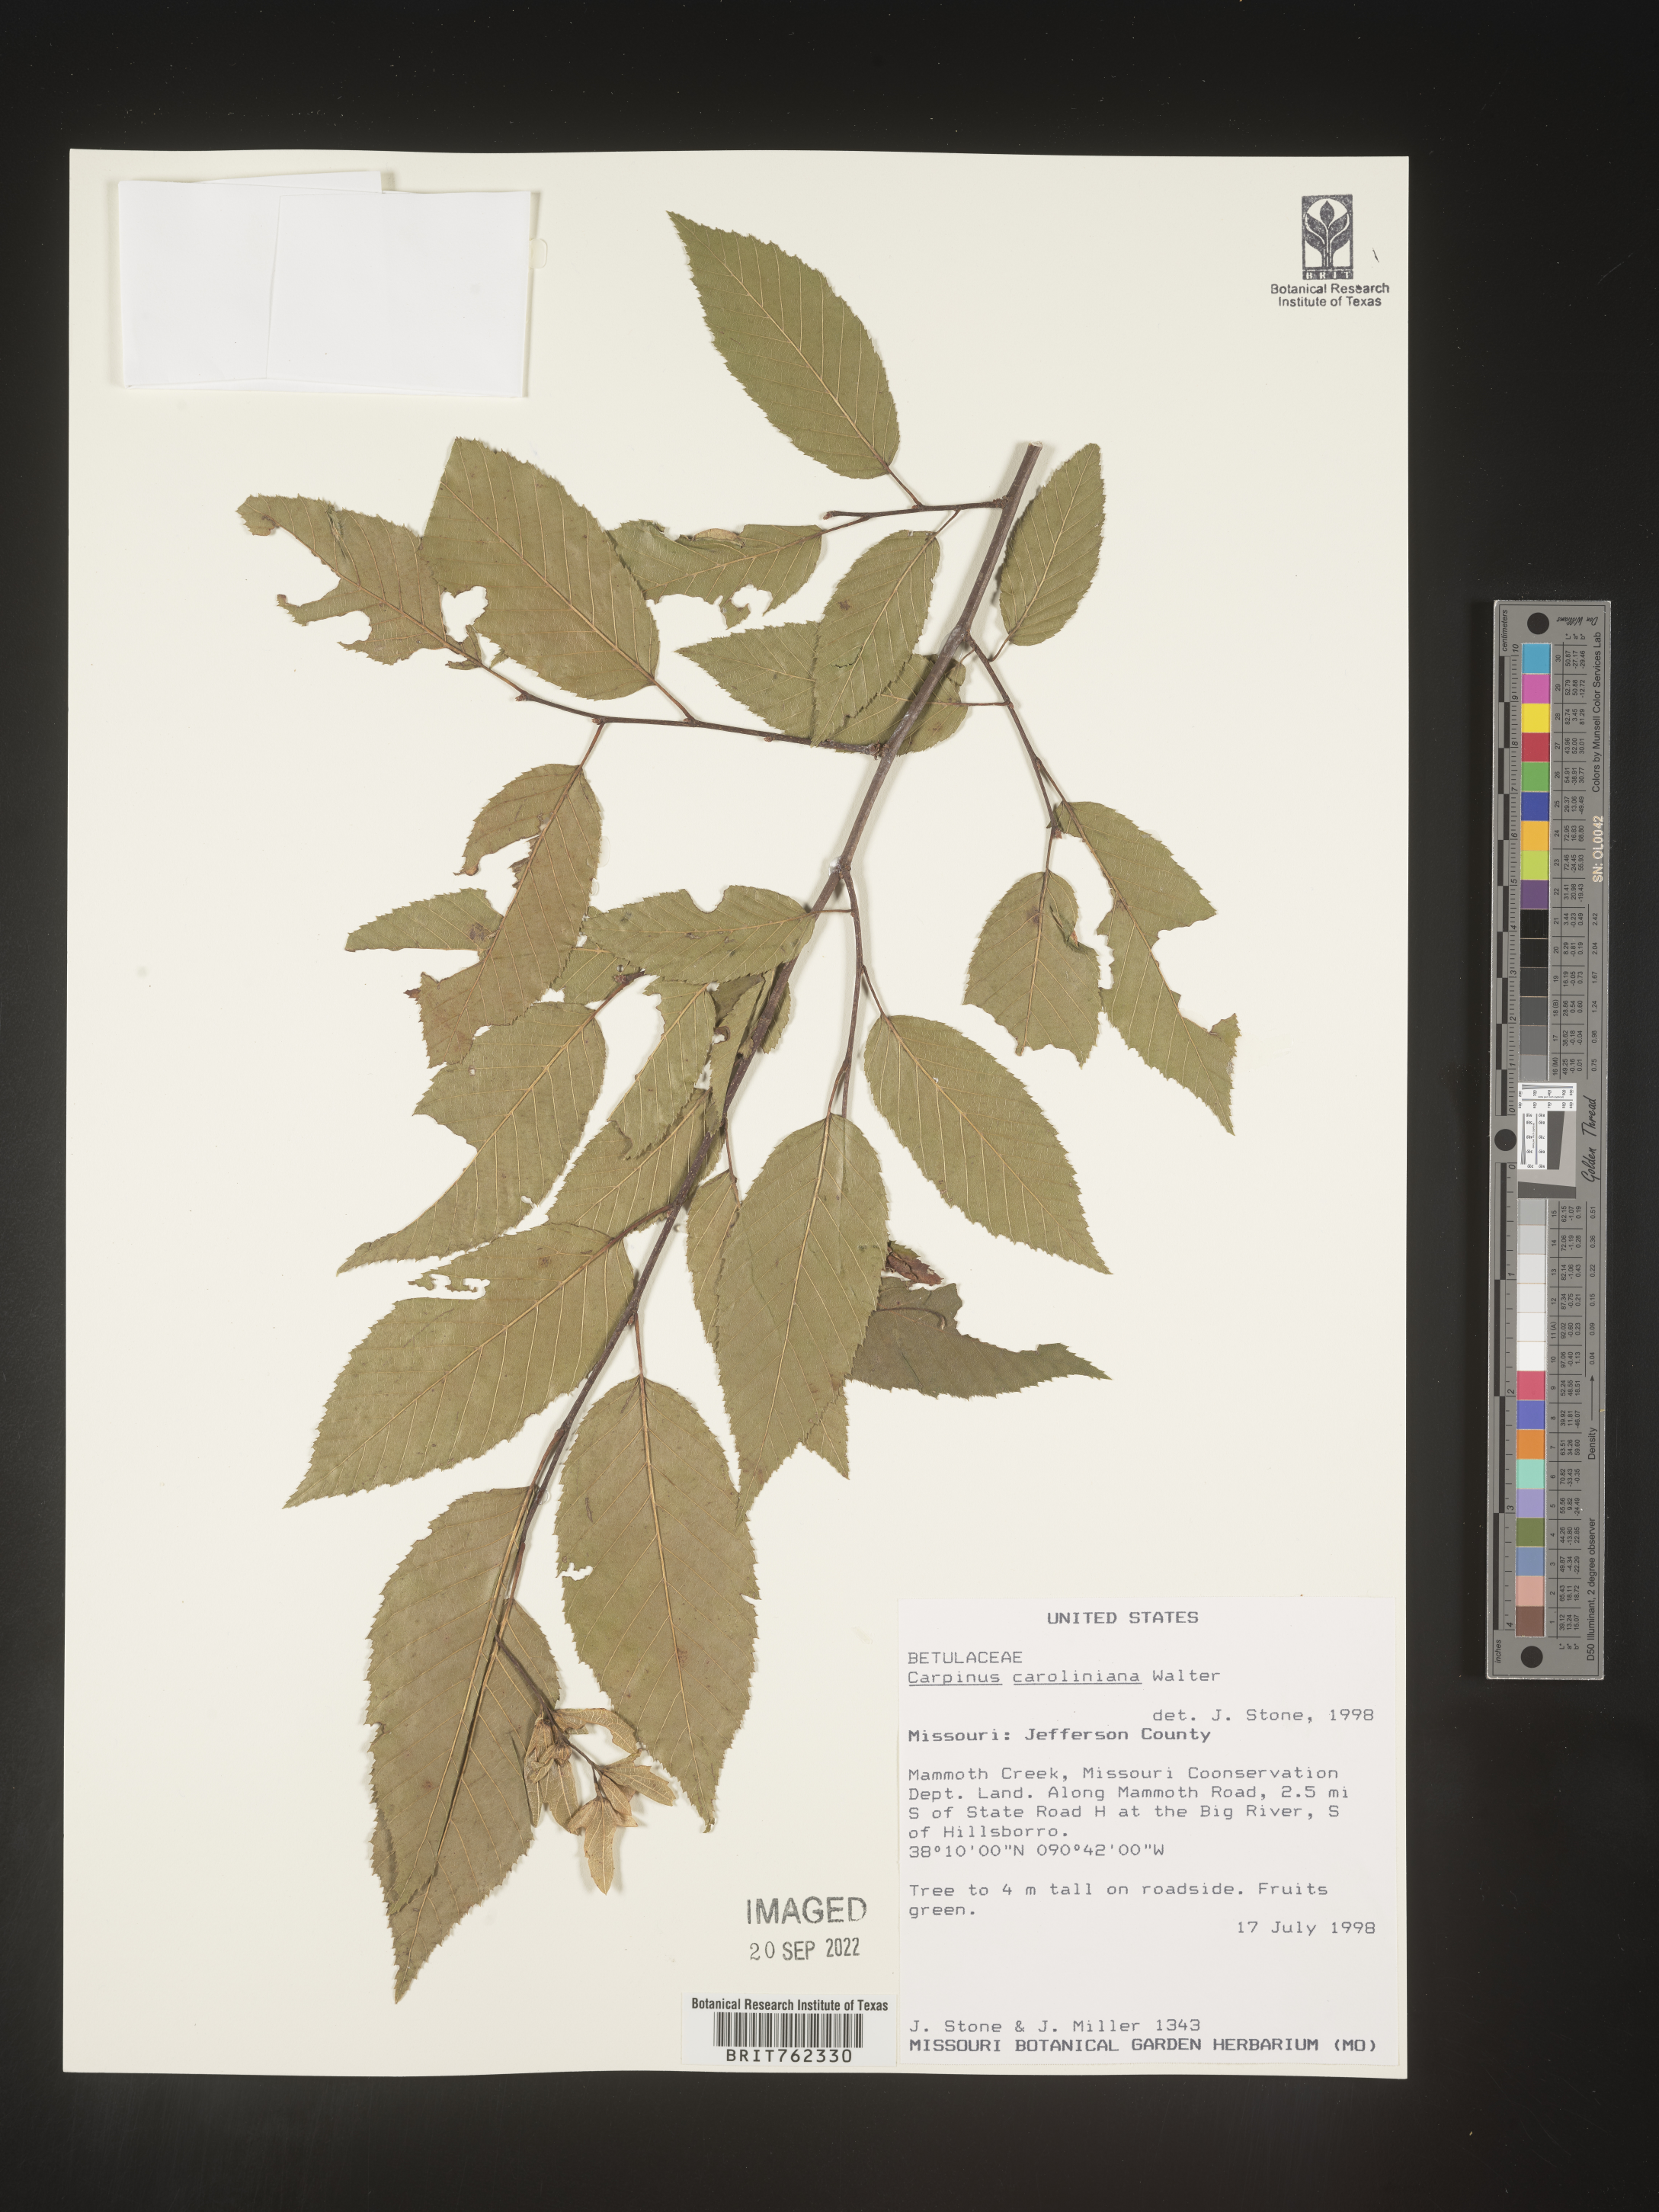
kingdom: Plantae
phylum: Tracheophyta
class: Magnoliopsida
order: Fagales
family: Betulaceae
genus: Carpinus
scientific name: Carpinus caroliniana
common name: American hornbeam
